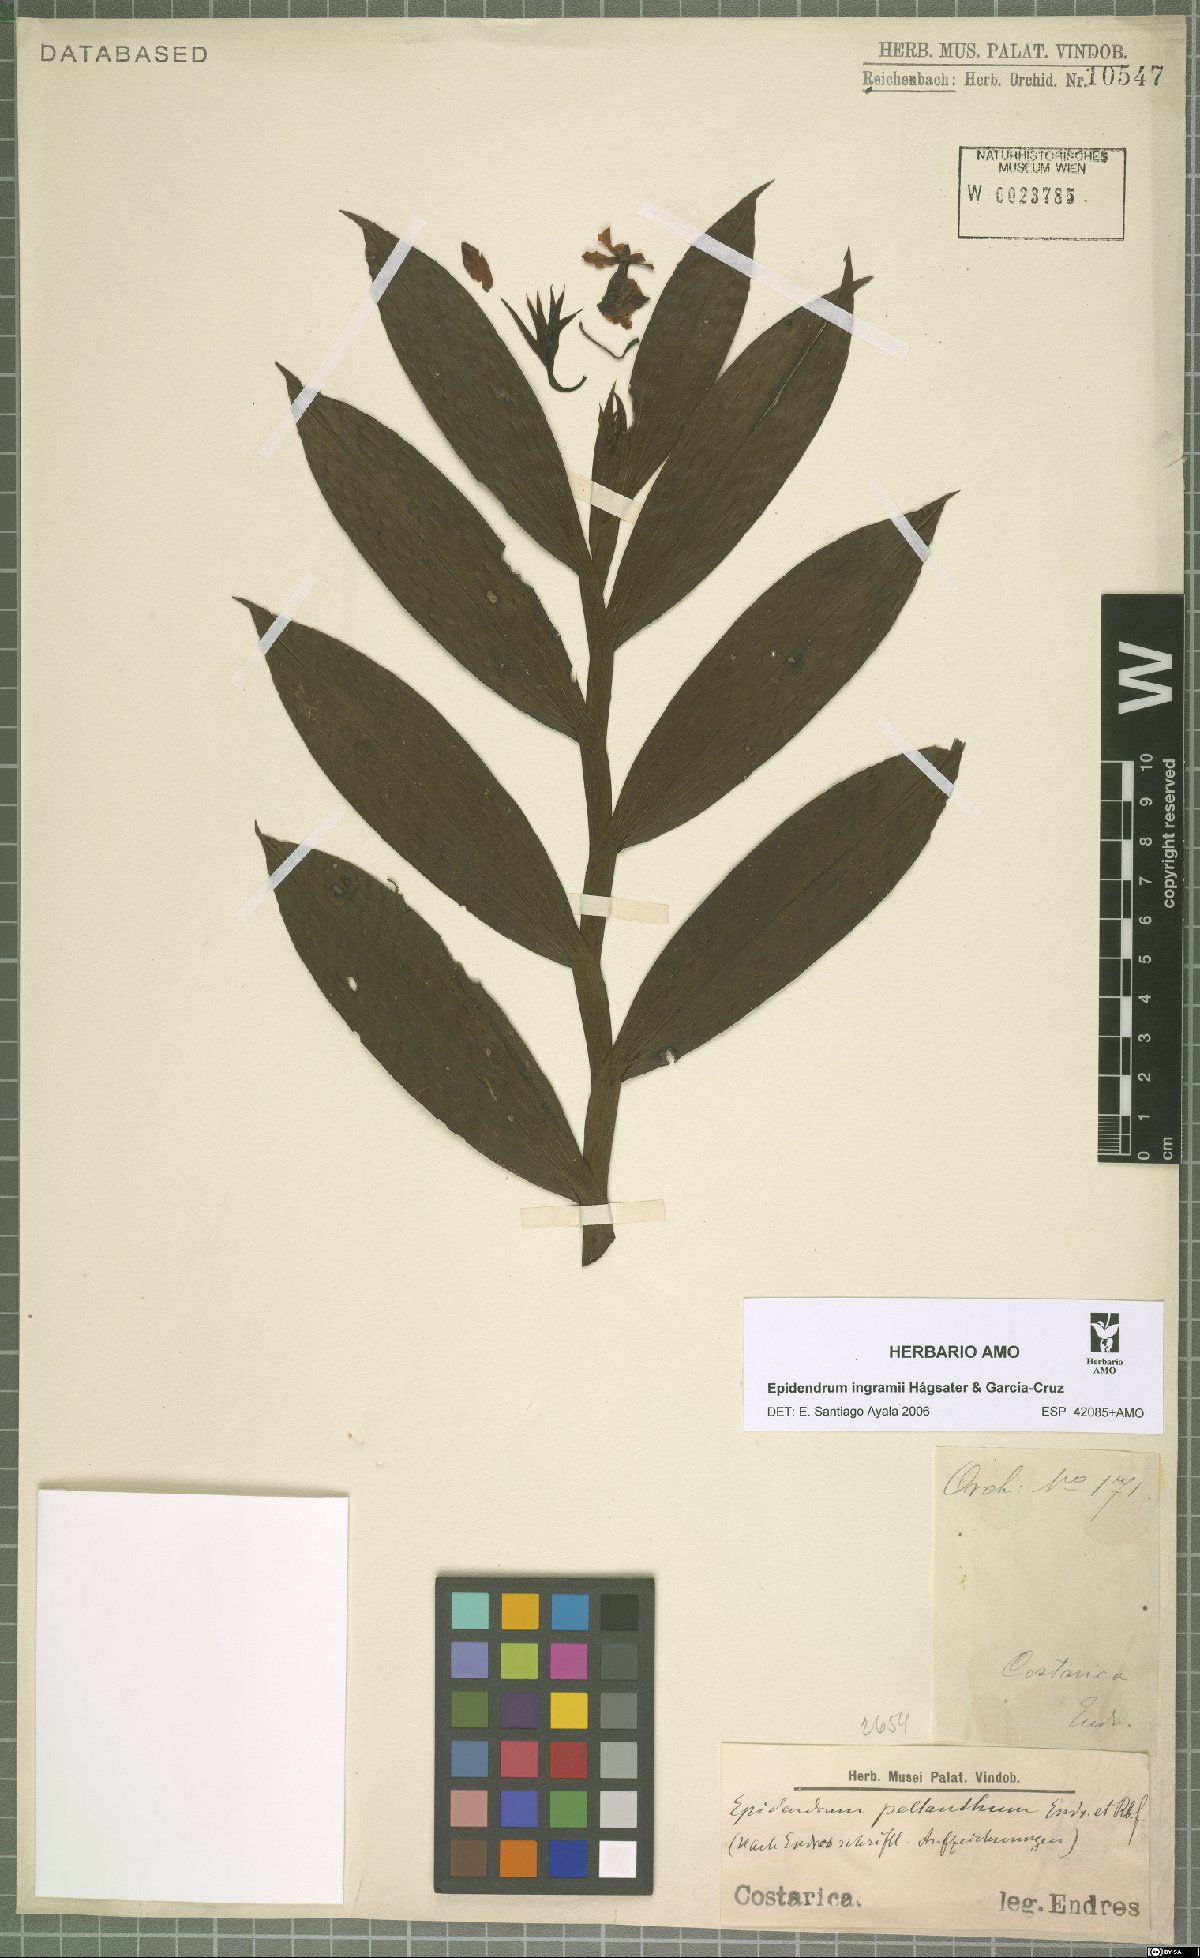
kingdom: Plantae
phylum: Tracheophyta
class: Liliopsida
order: Asparagales
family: Orchidaceae
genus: Epidendrum
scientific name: Epidendrum ingramii
